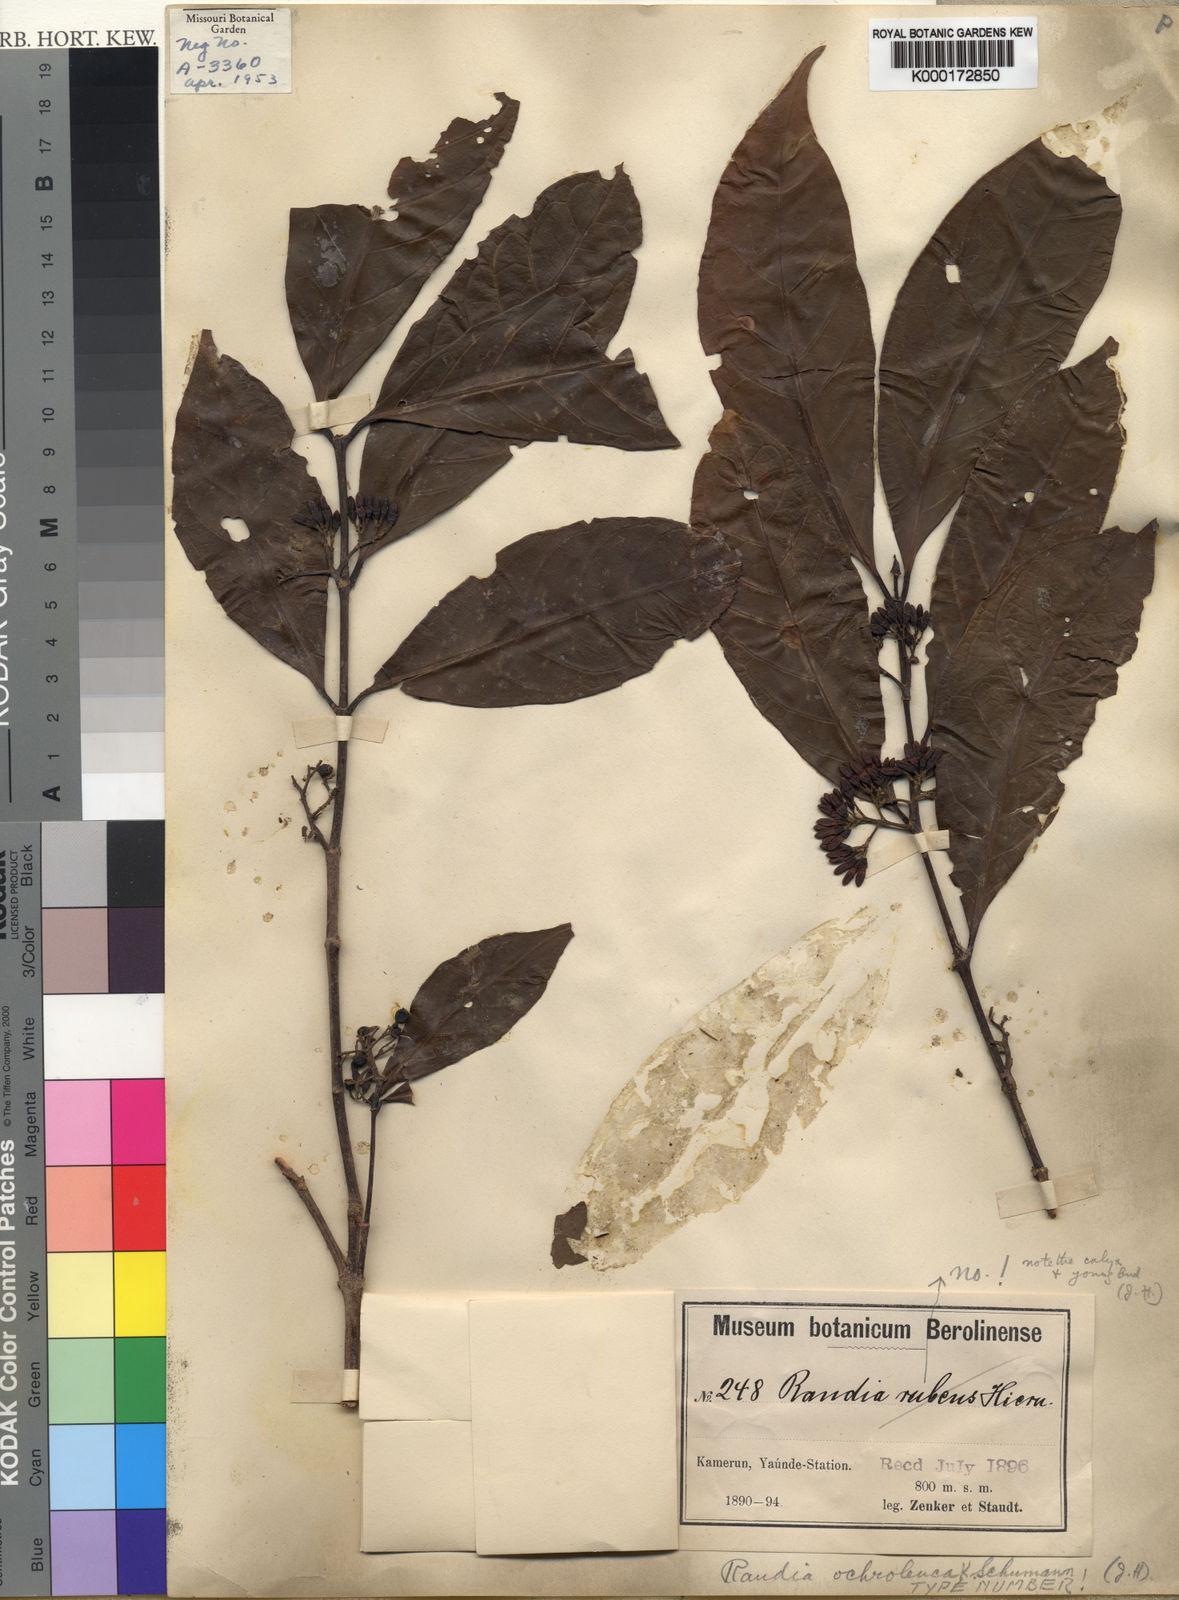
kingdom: Plantae
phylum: Tracheophyta
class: Magnoliopsida
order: Gentianales
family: Rubiaceae
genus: Aidia
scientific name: Aidia ochroleuca
